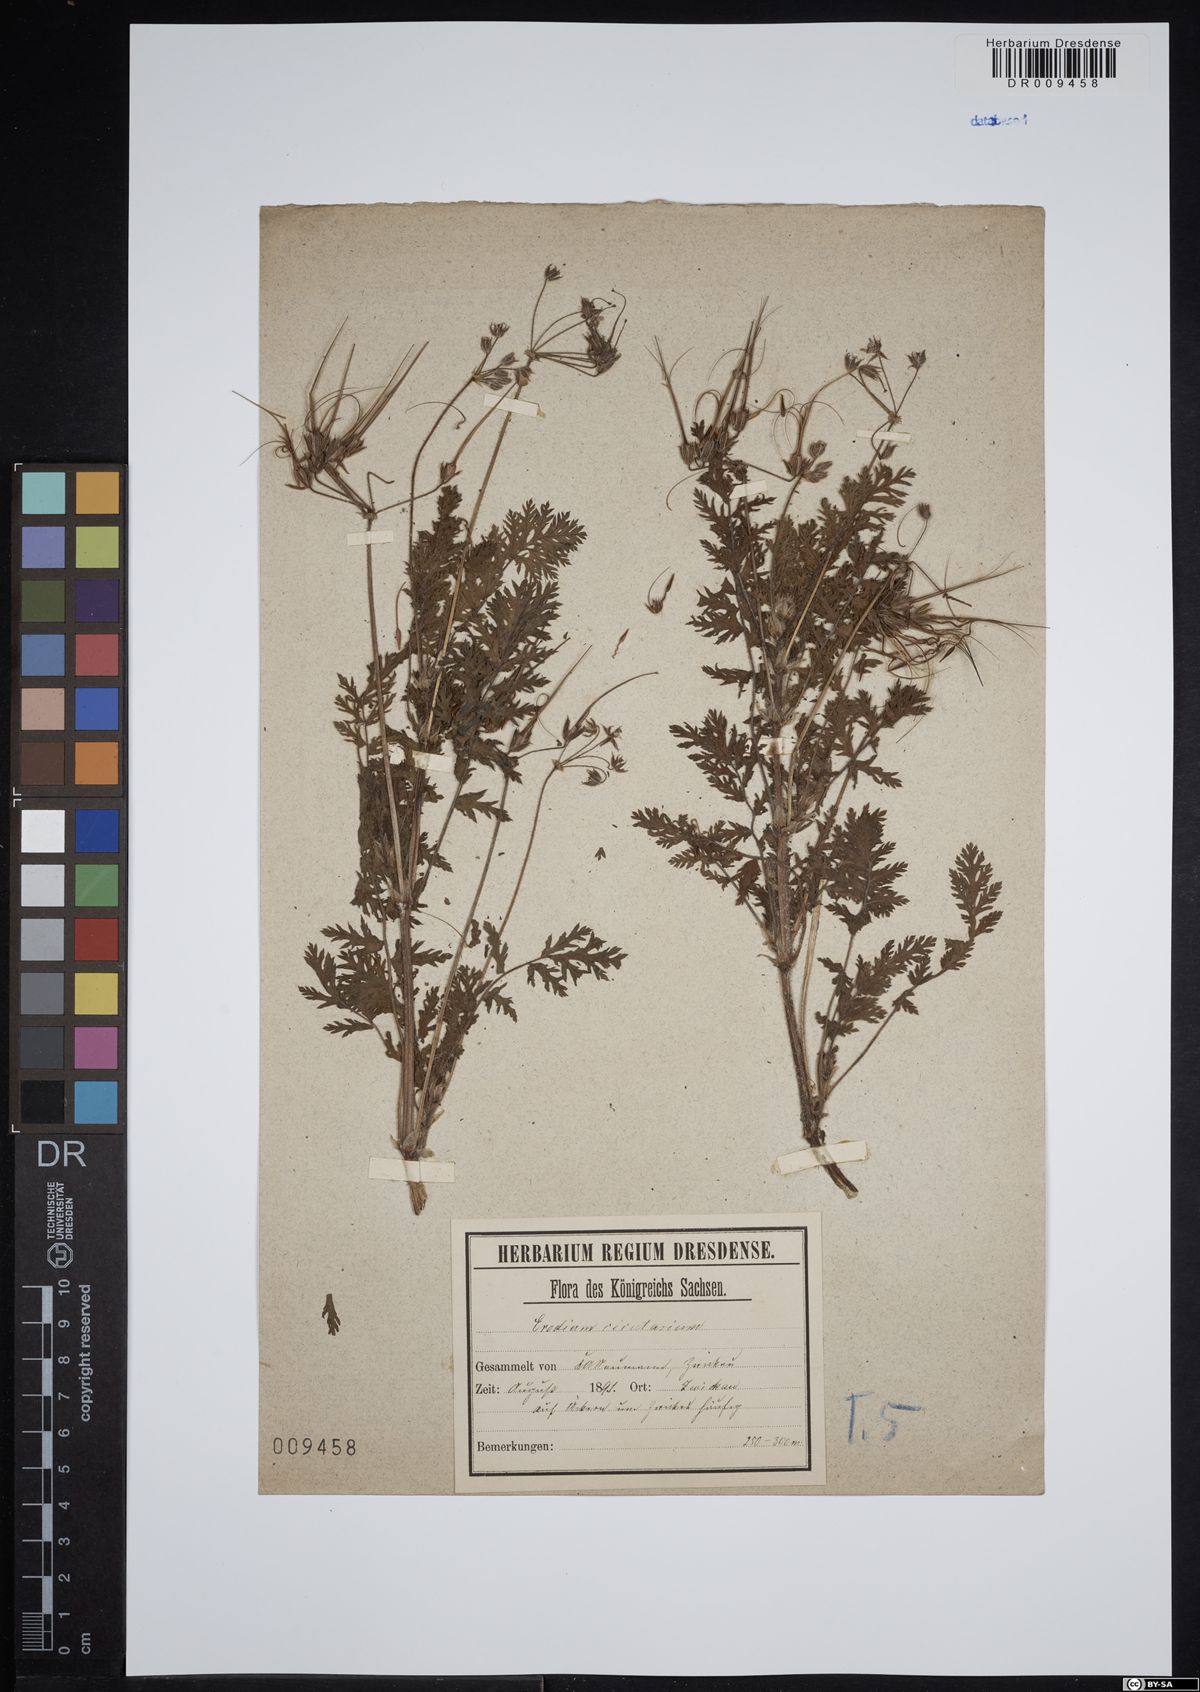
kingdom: Plantae
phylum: Tracheophyta
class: Magnoliopsida
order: Geraniales
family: Geraniaceae
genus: Erodium
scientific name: Erodium cicutarium
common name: Common stork's-bill
